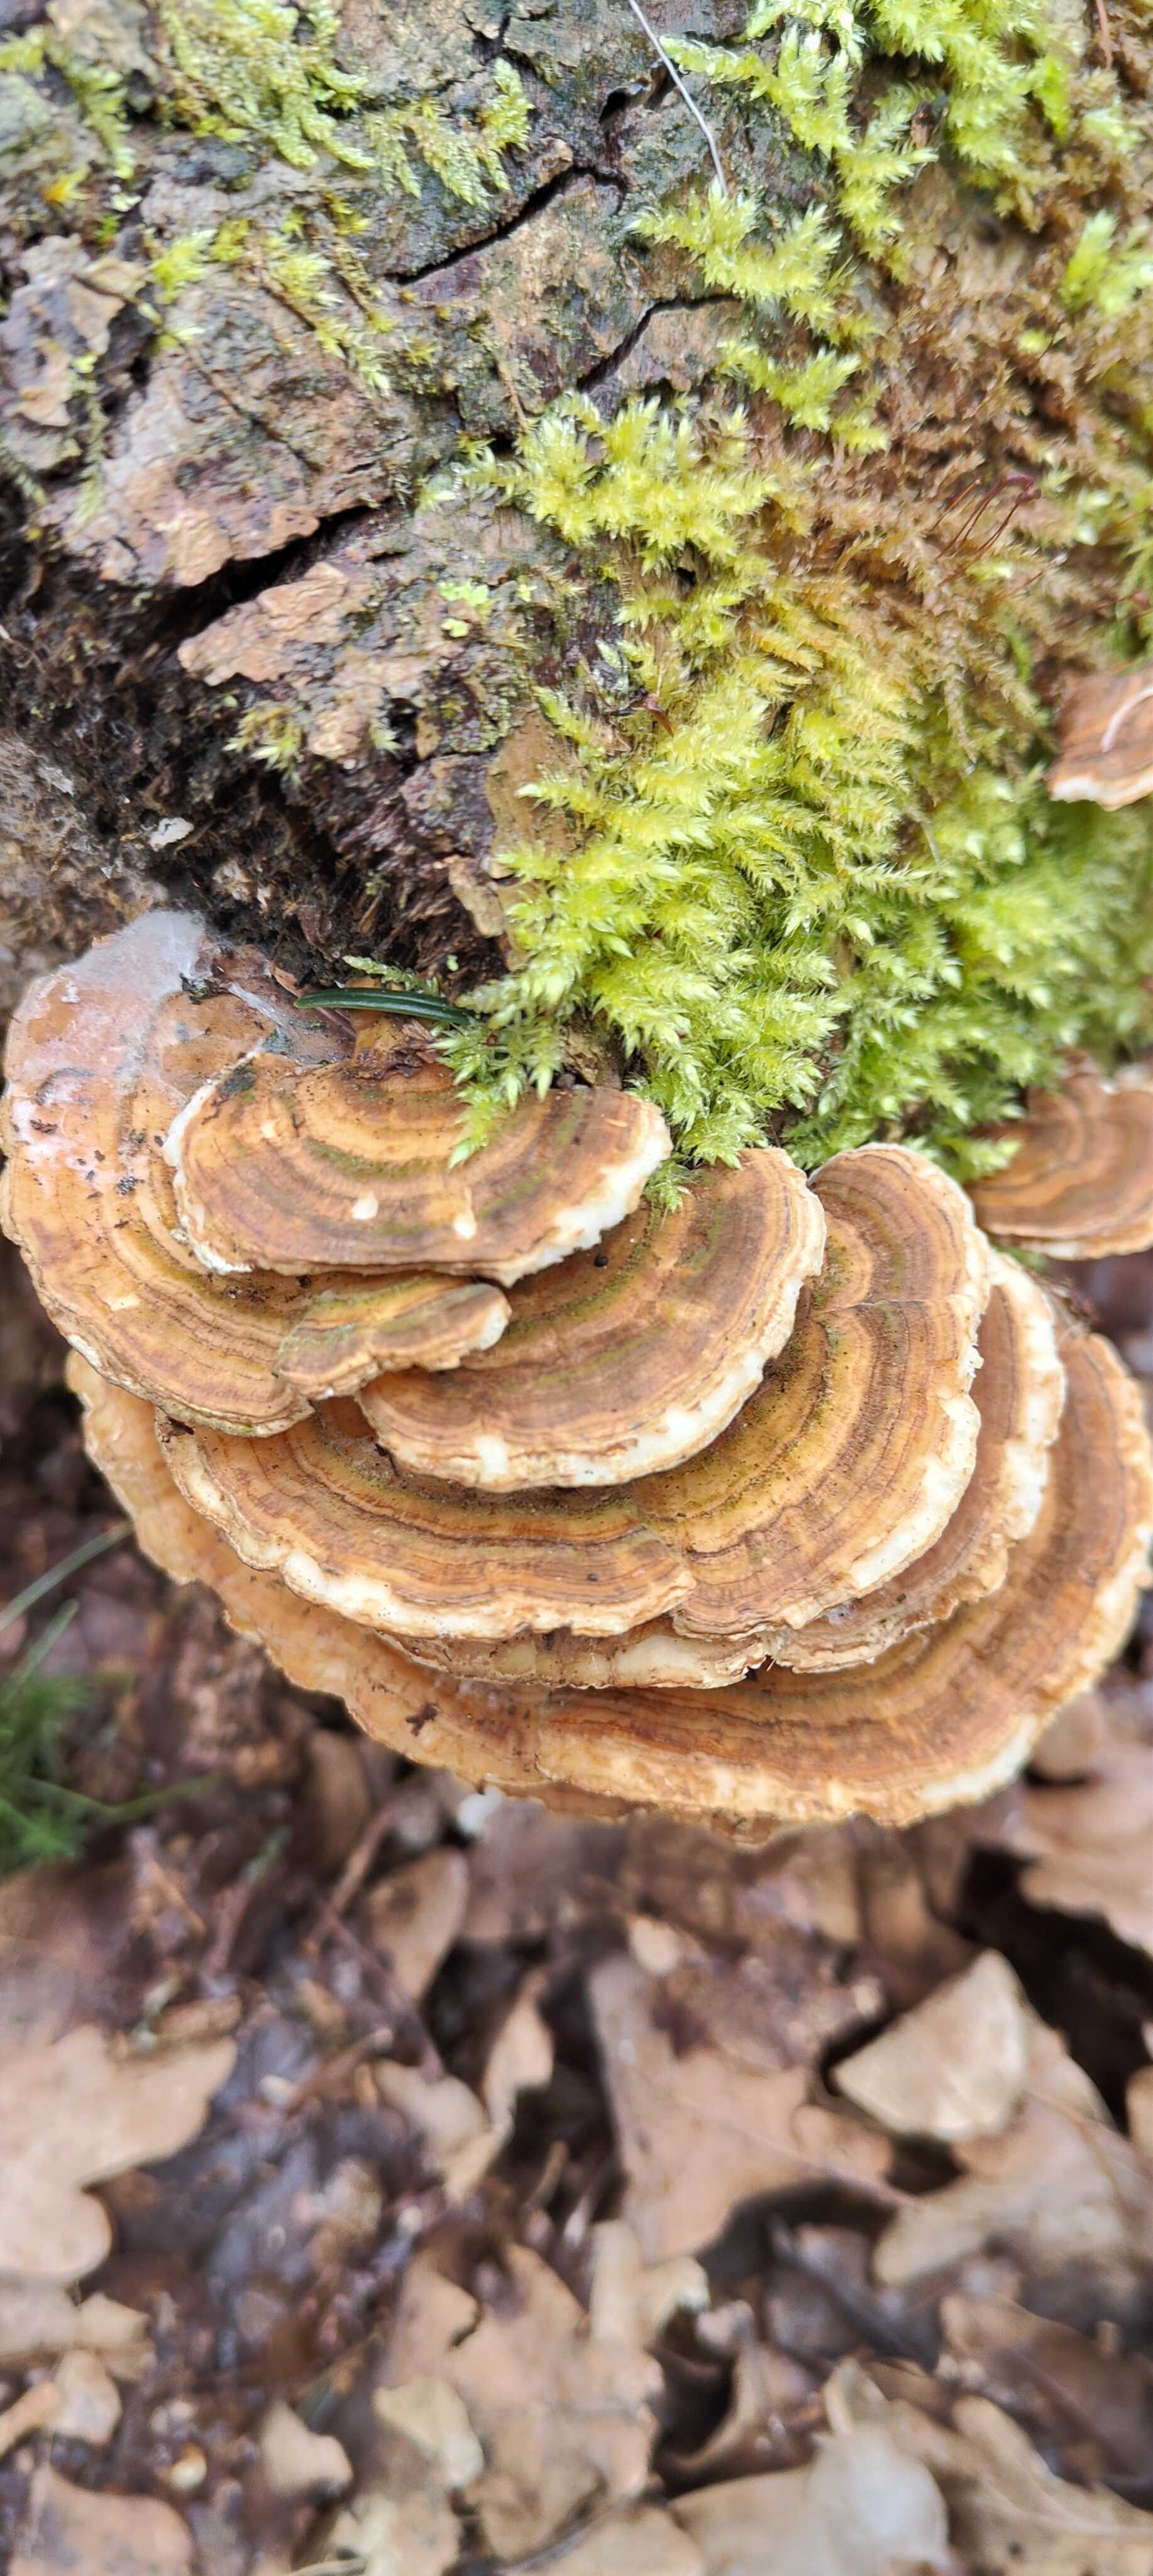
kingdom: Fungi
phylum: Basidiomycota
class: Agaricomycetes
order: Polyporales
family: Polyporaceae
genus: Trametes
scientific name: Trametes versicolor
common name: broget læderporesvamp
